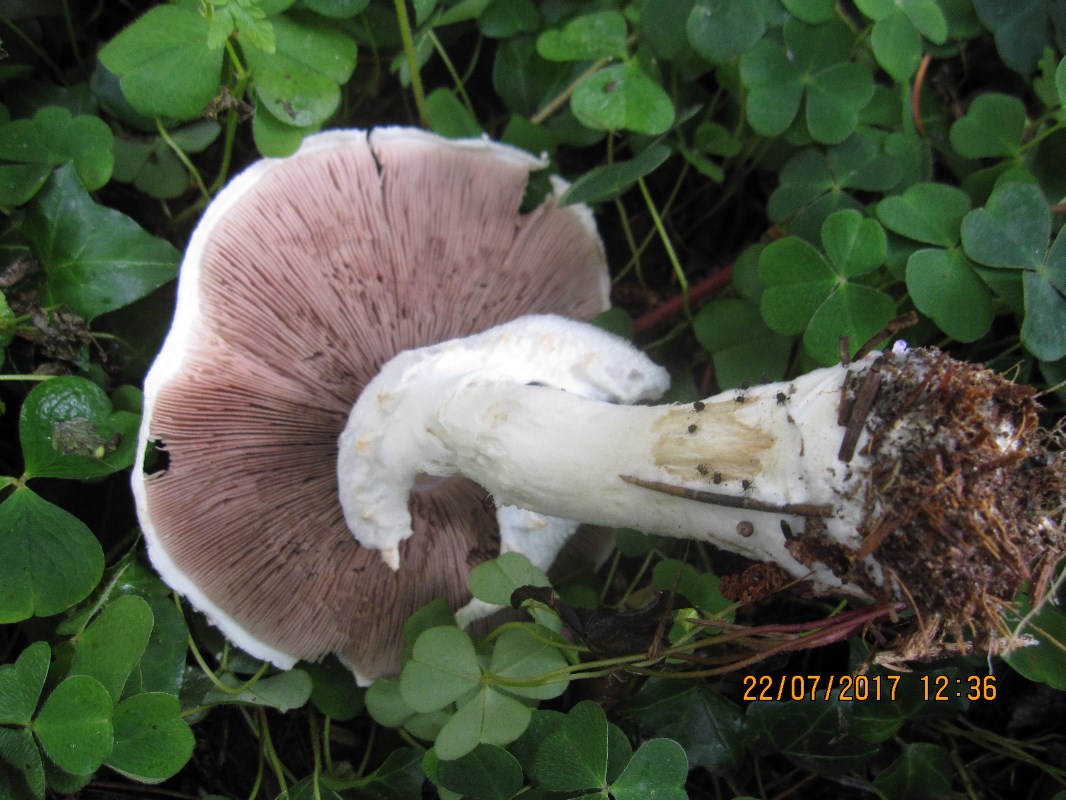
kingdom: Fungi
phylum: Basidiomycota
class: Agaricomycetes
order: Agaricales
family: Agaricaceae
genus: Agaricus
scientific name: Agaricus arvensis
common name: ager-champignon
